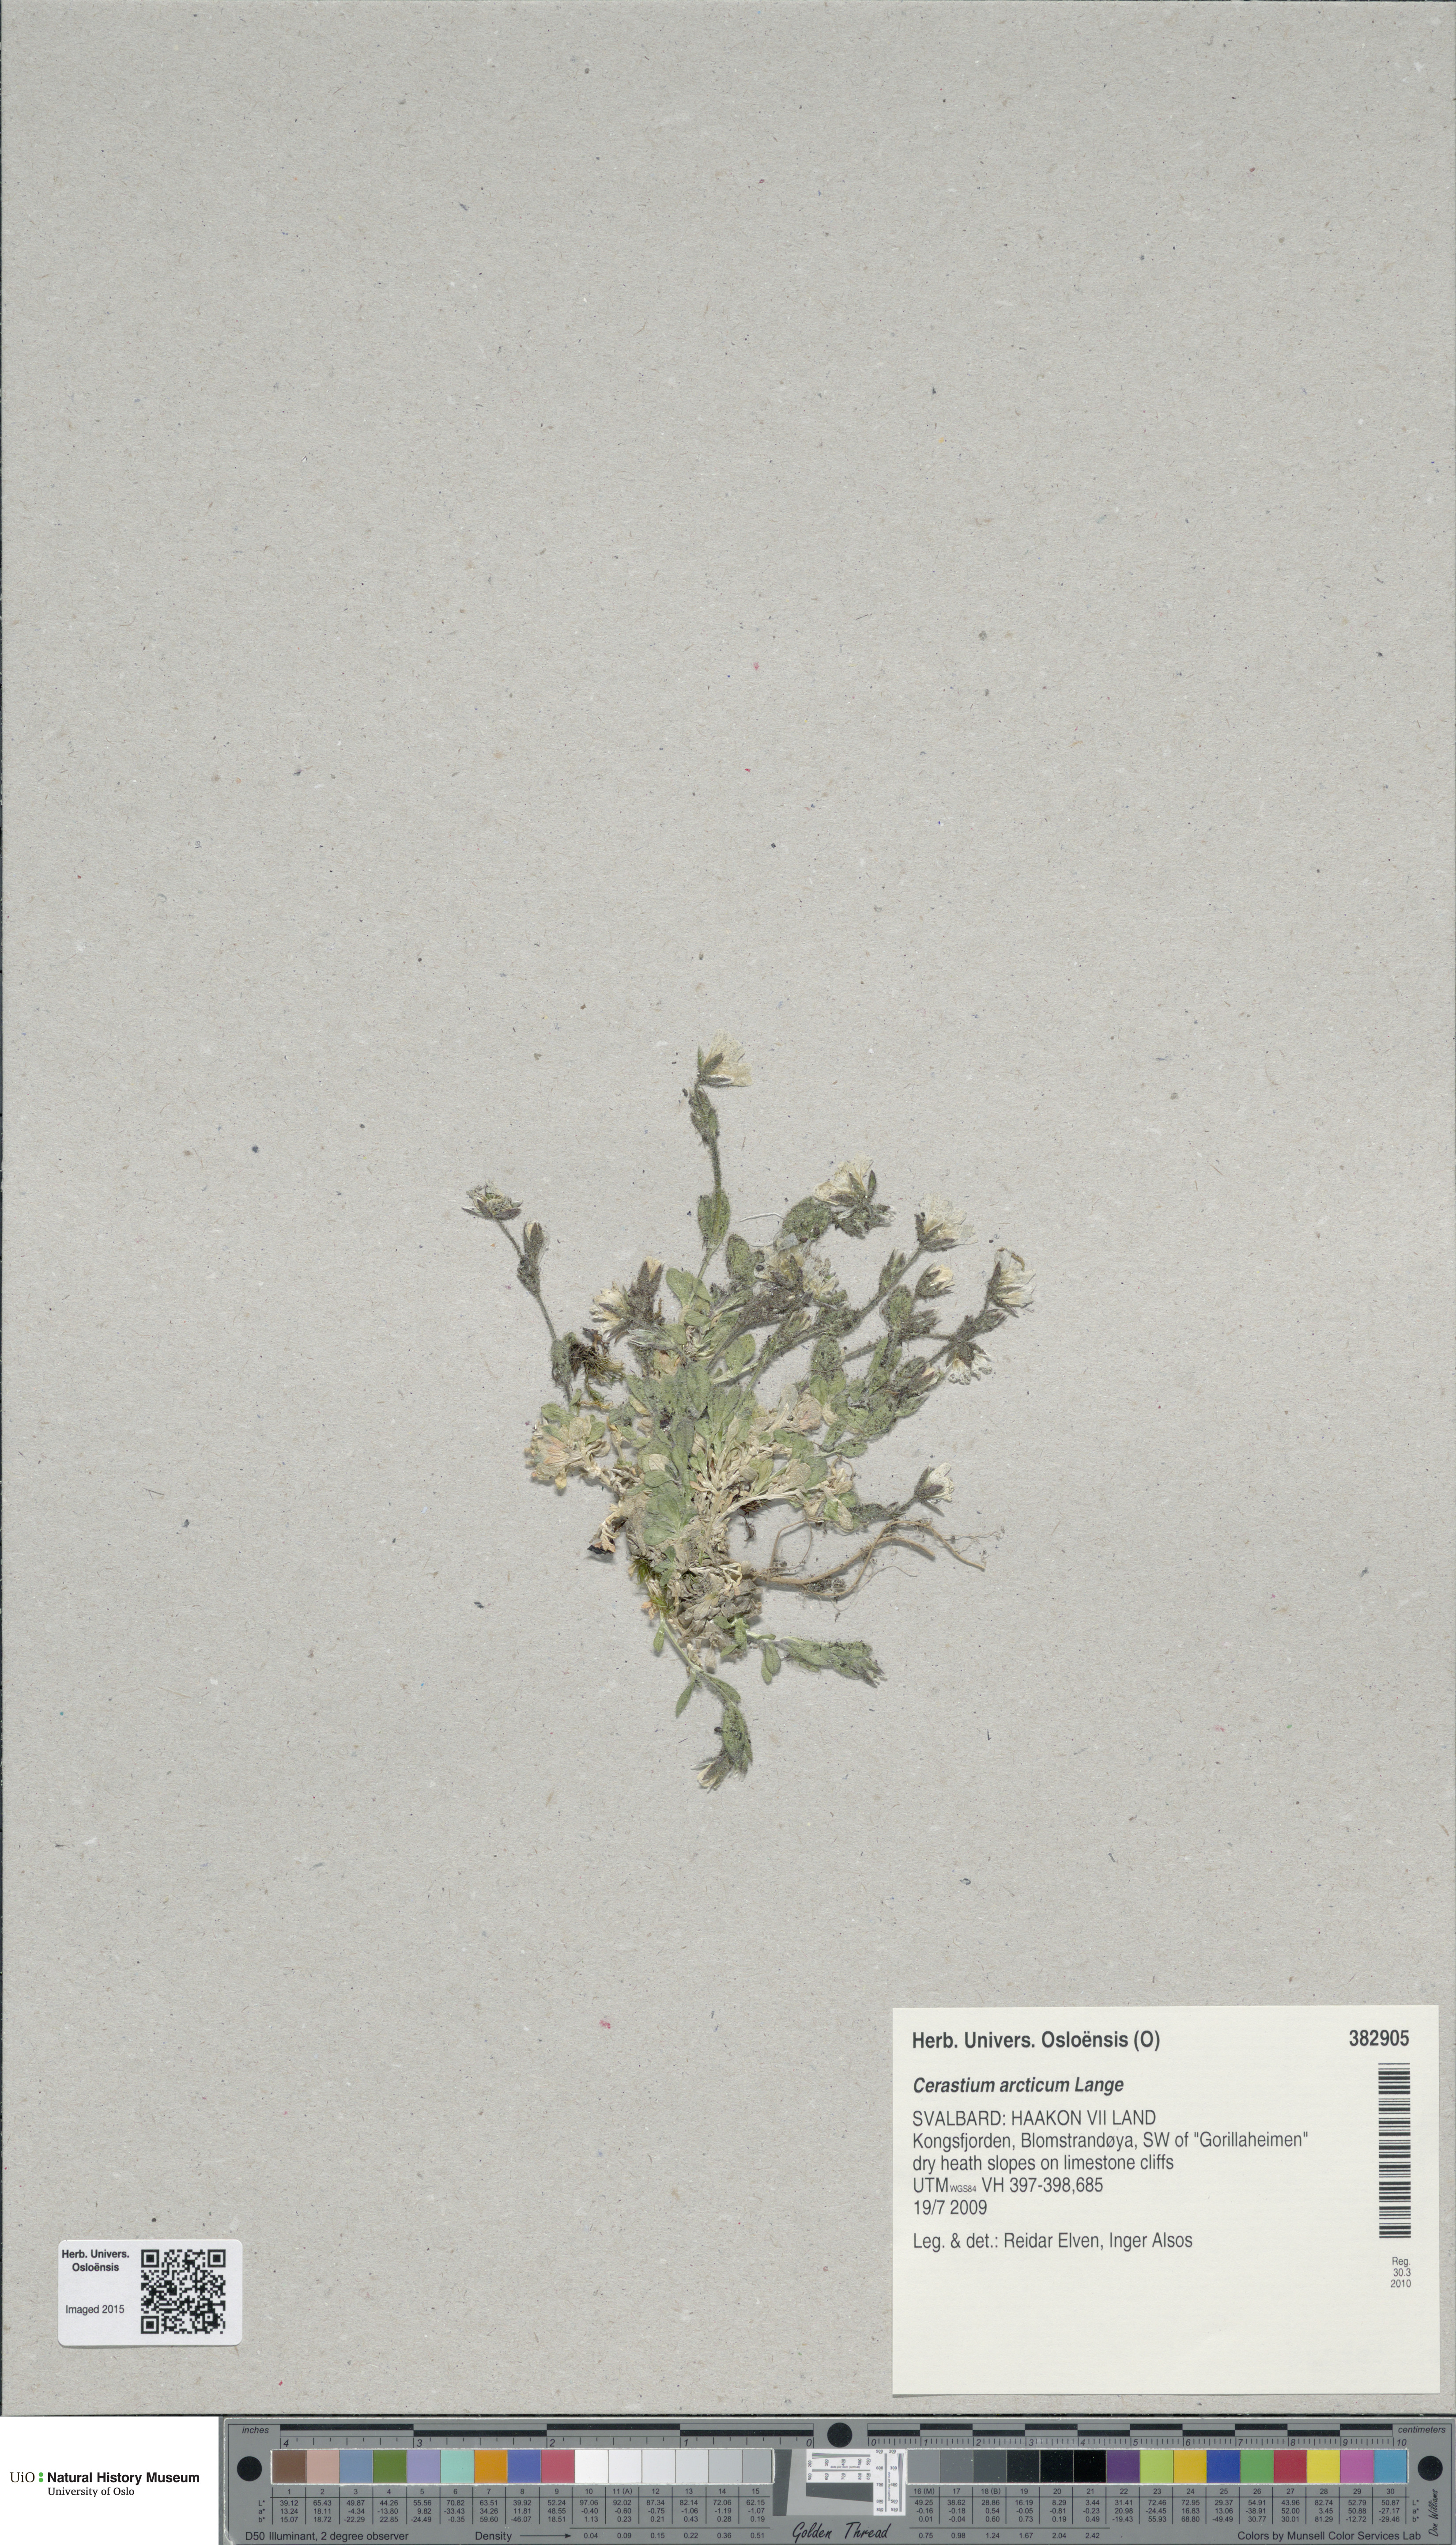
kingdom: Plantae
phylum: Tracheophyta
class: Magnoliopsida
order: Caryophyllales
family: Caryophyllaceae
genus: Cerastium
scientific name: Cerastium arcticum
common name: Arctic mouse-ear
